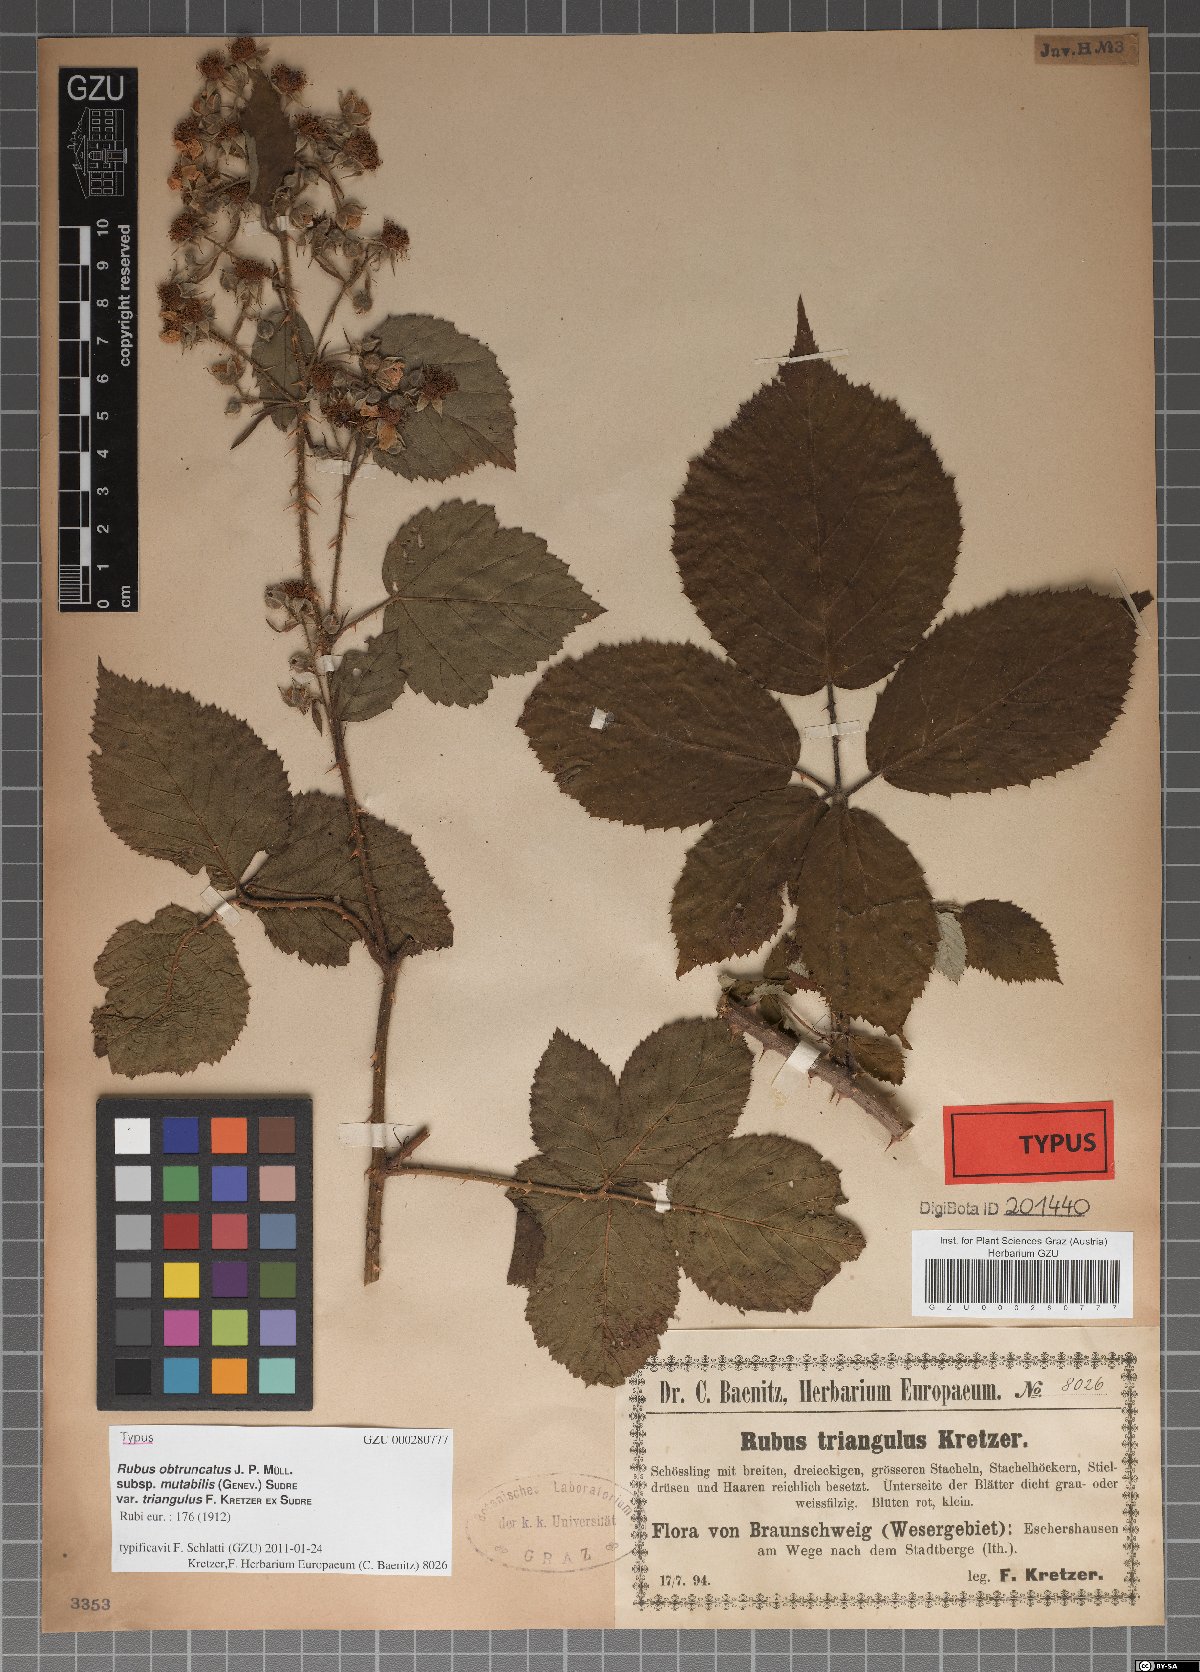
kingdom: Plantae
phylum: Tracheophyta
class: Magnoliopsida
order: Rosales
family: Rosaceae
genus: Rubus
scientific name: Rubus obtruncatus
